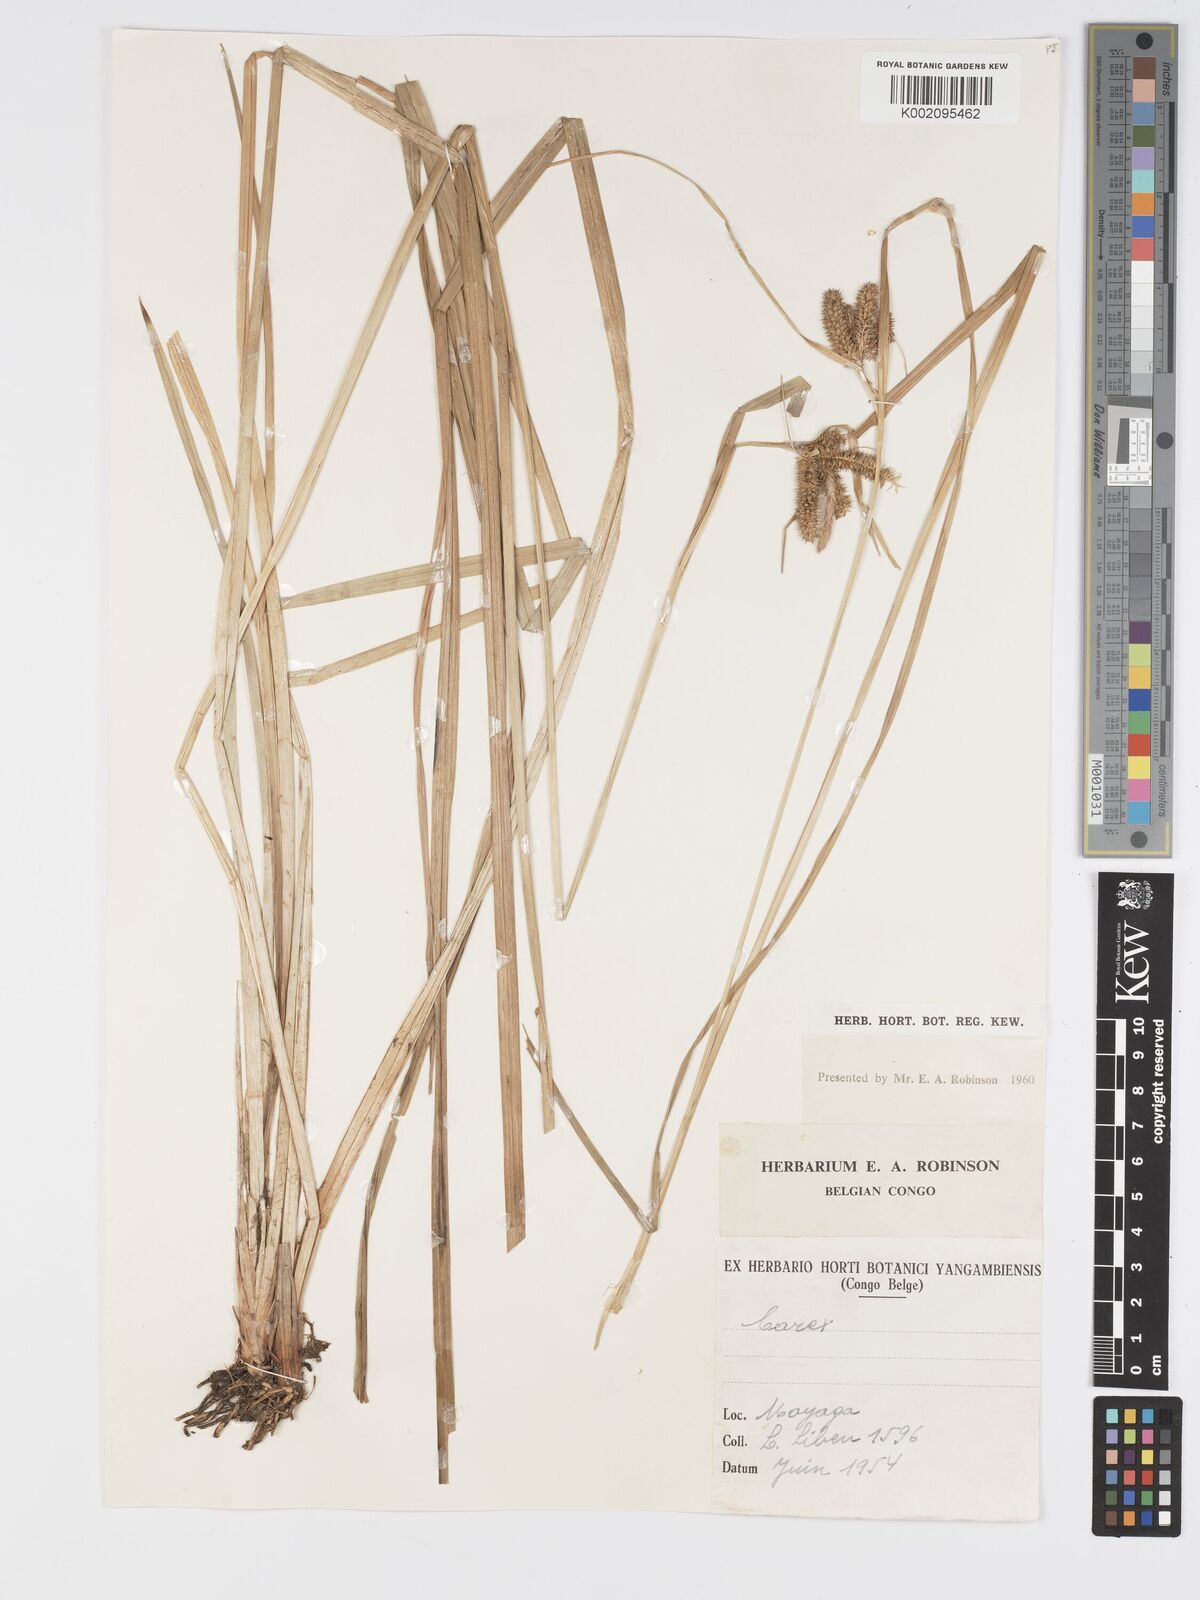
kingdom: Plantae
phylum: Tracheophyta
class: Liliopsida
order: Poales
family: Cyperaceae
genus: Carex
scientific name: Carex congolensis
